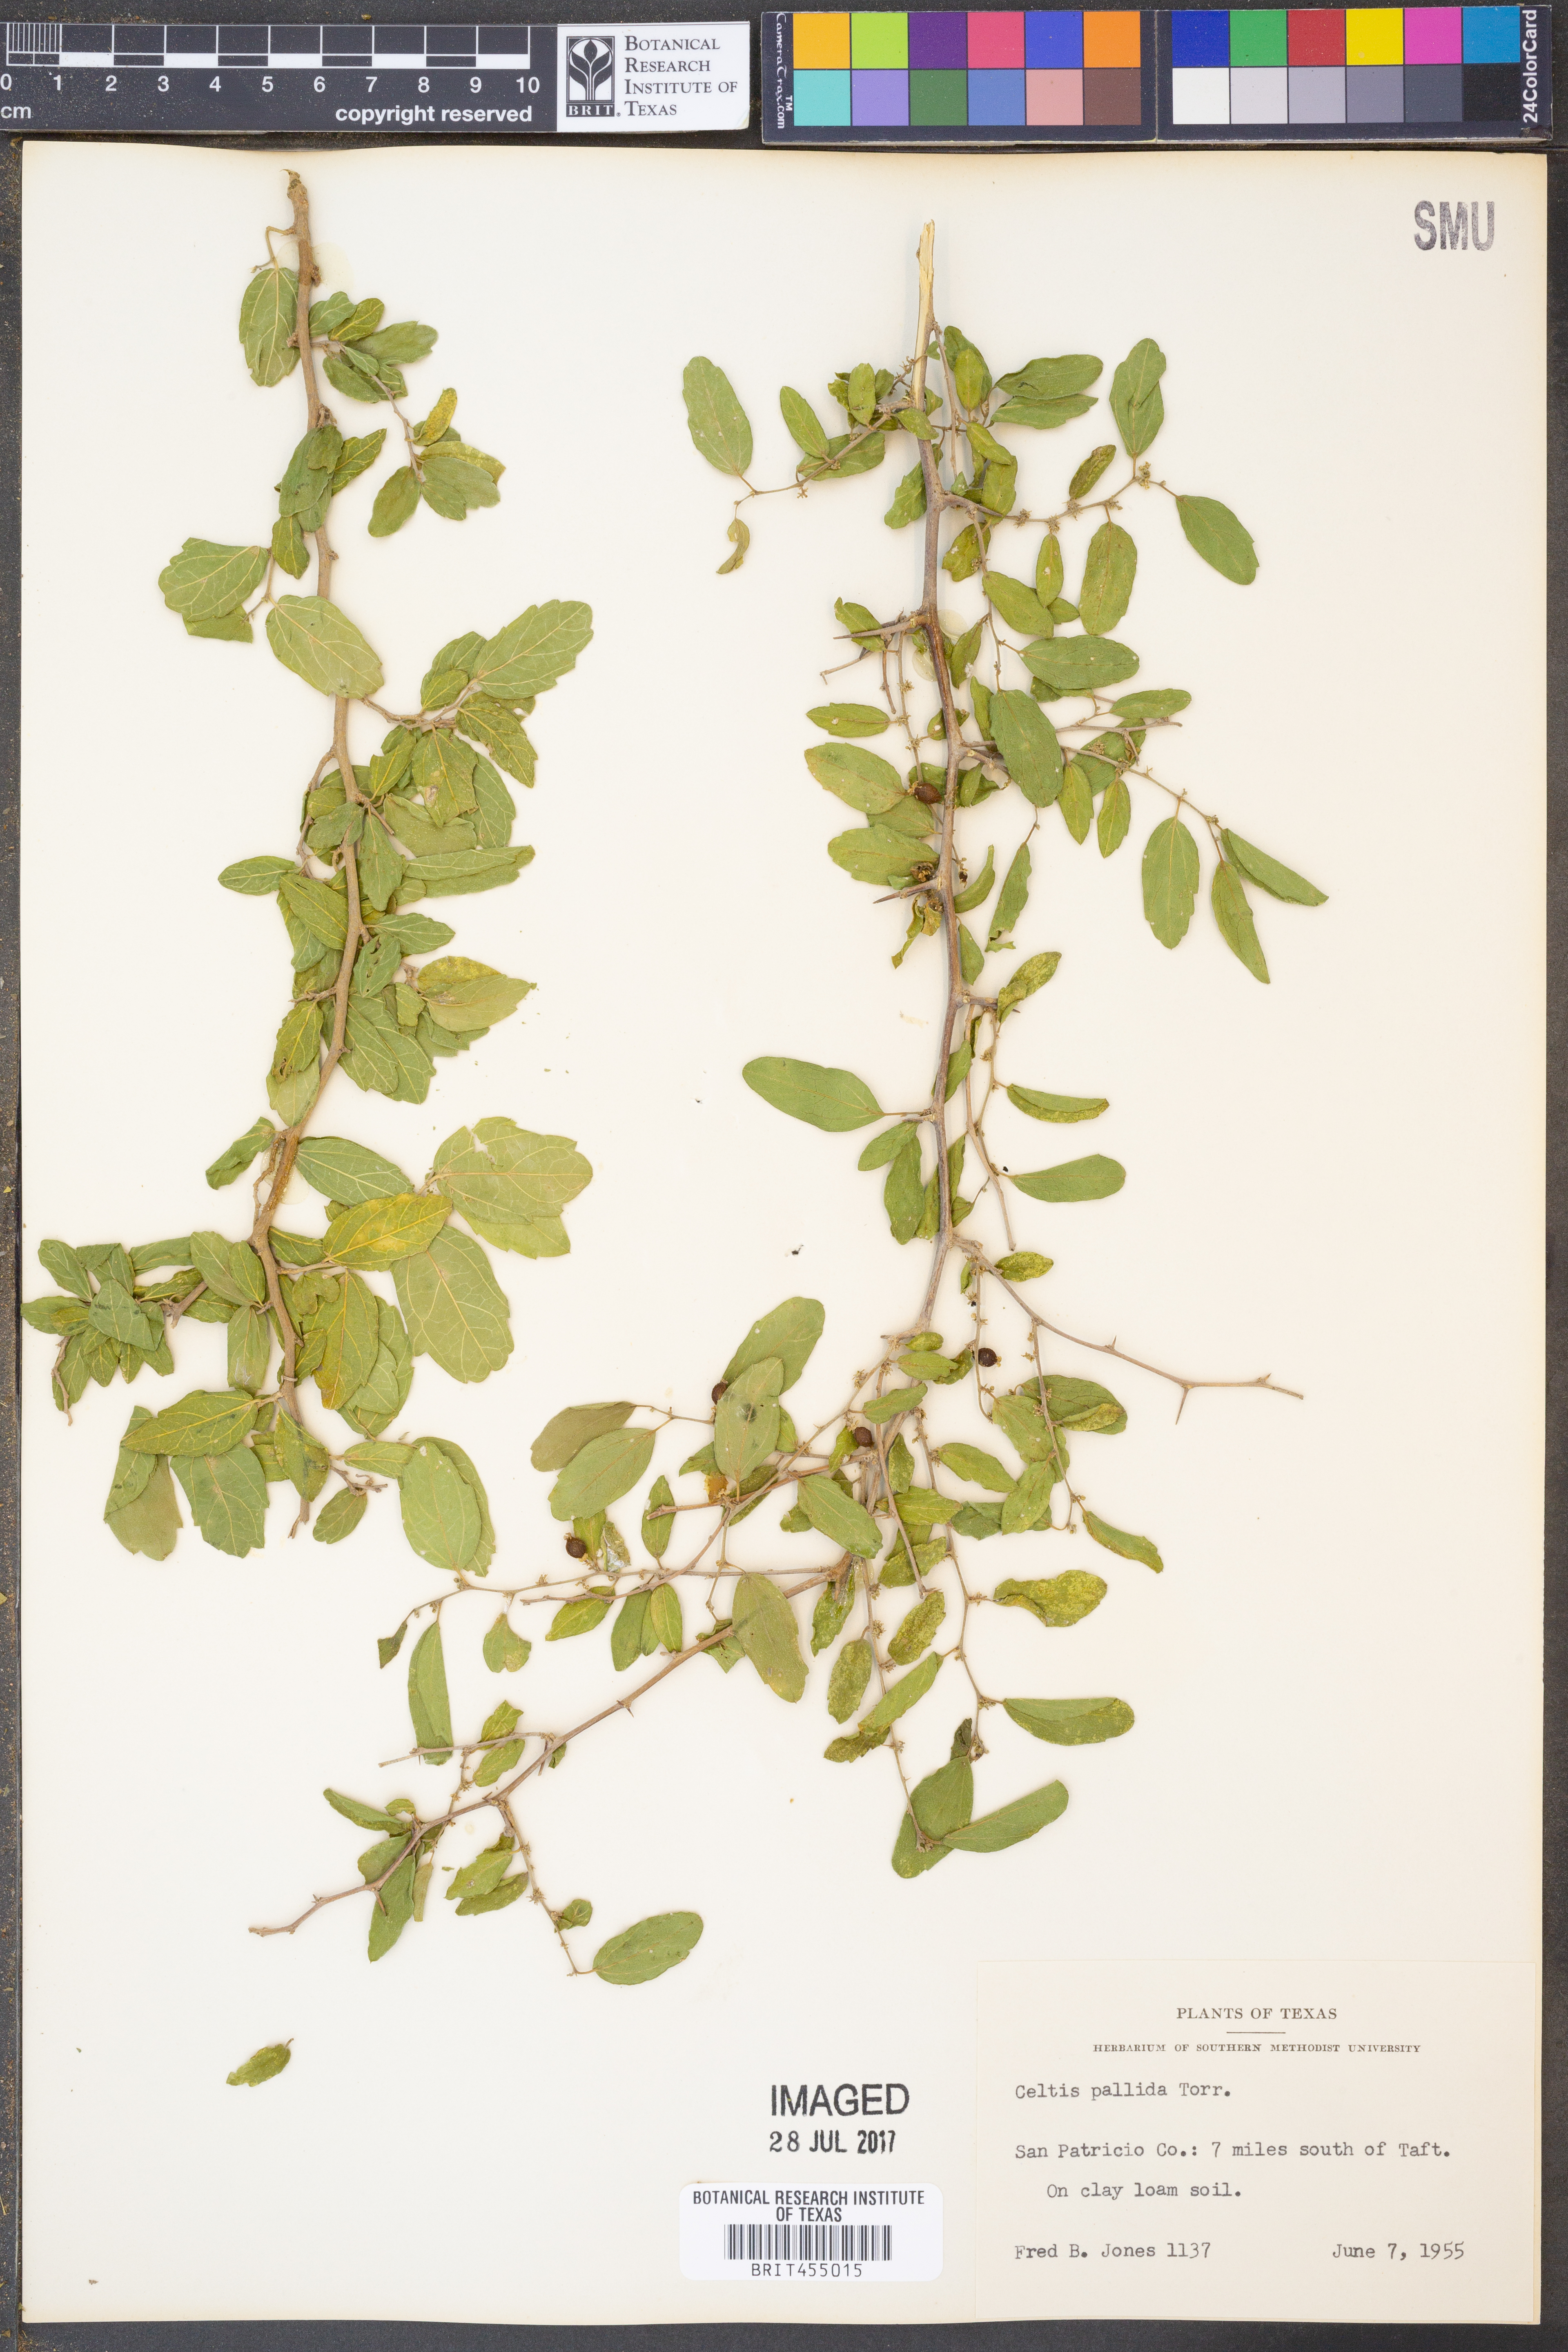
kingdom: Plantae
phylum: Tracheophyta
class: Magnoliopsida
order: Rosales
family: Cannabaceae
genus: Celtis
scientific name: Celtis pallida
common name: Desert hackberry
